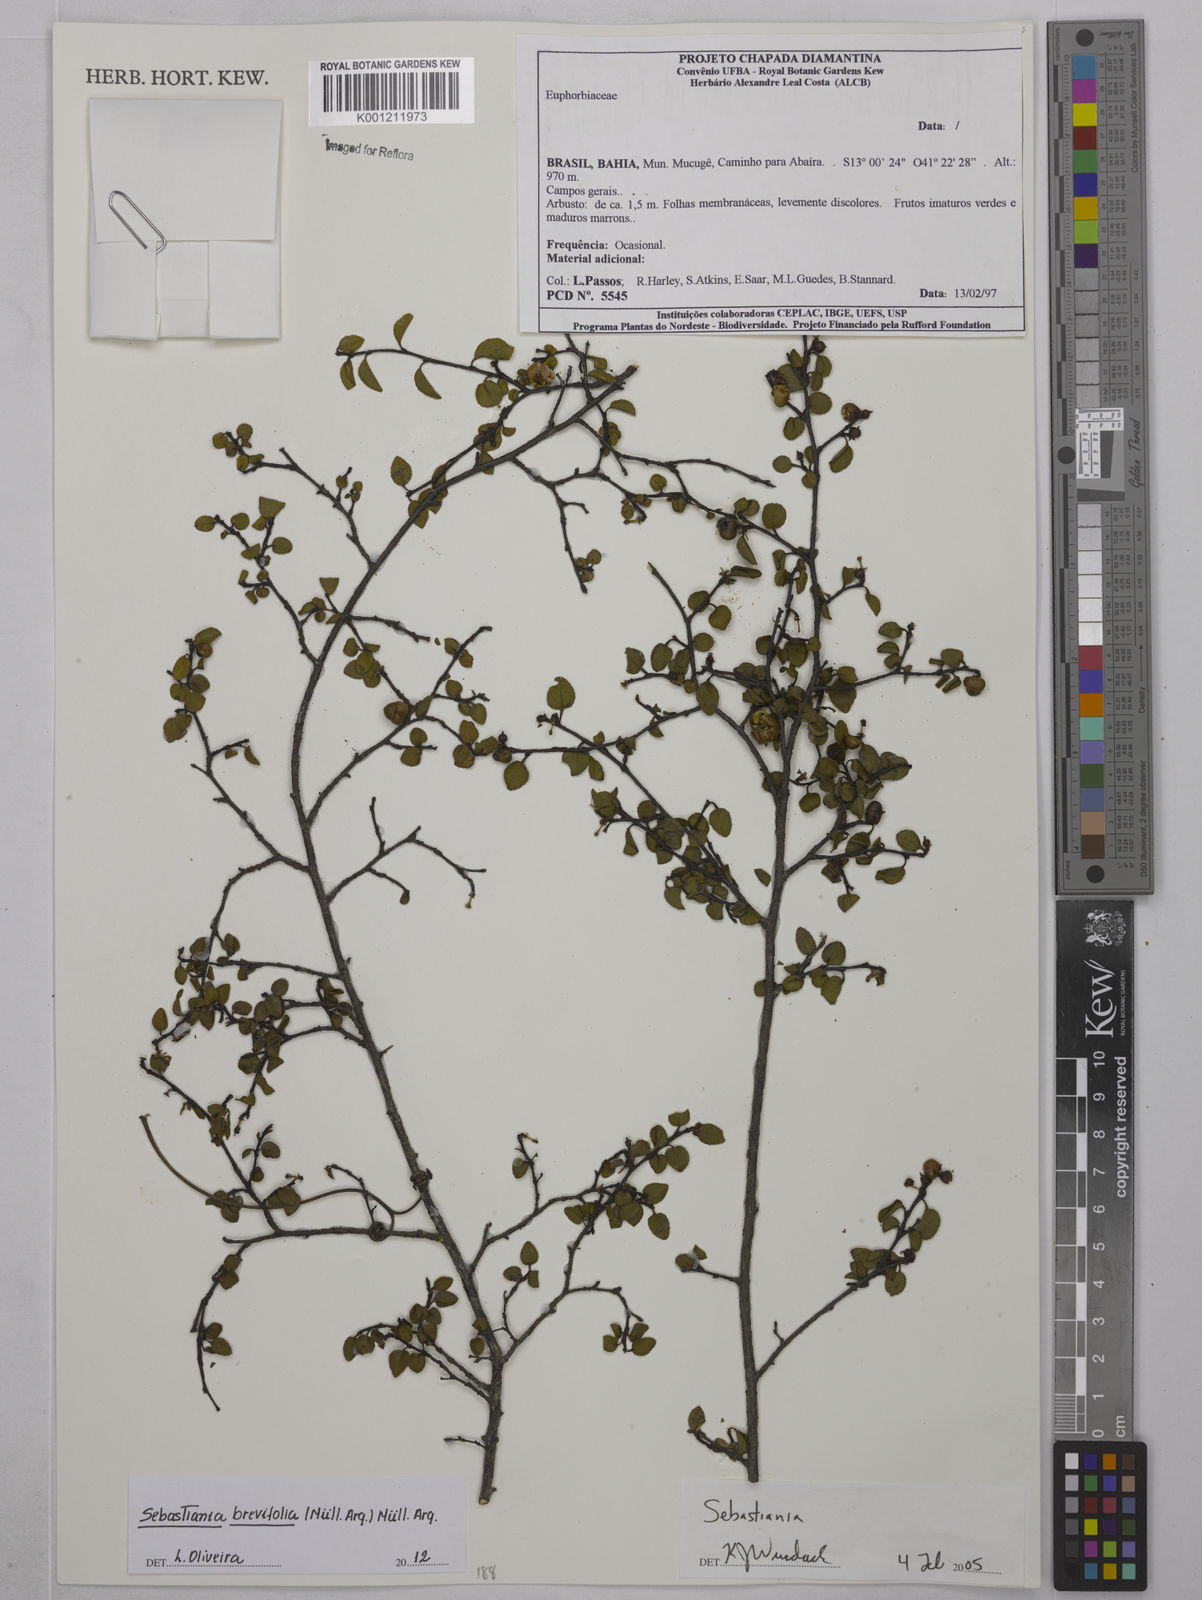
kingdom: Plantae
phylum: Tracheophyta
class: Magnoliopsida
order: Malpighiales
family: Euphorbiaceae
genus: Sebastiania
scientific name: Sebastiania
